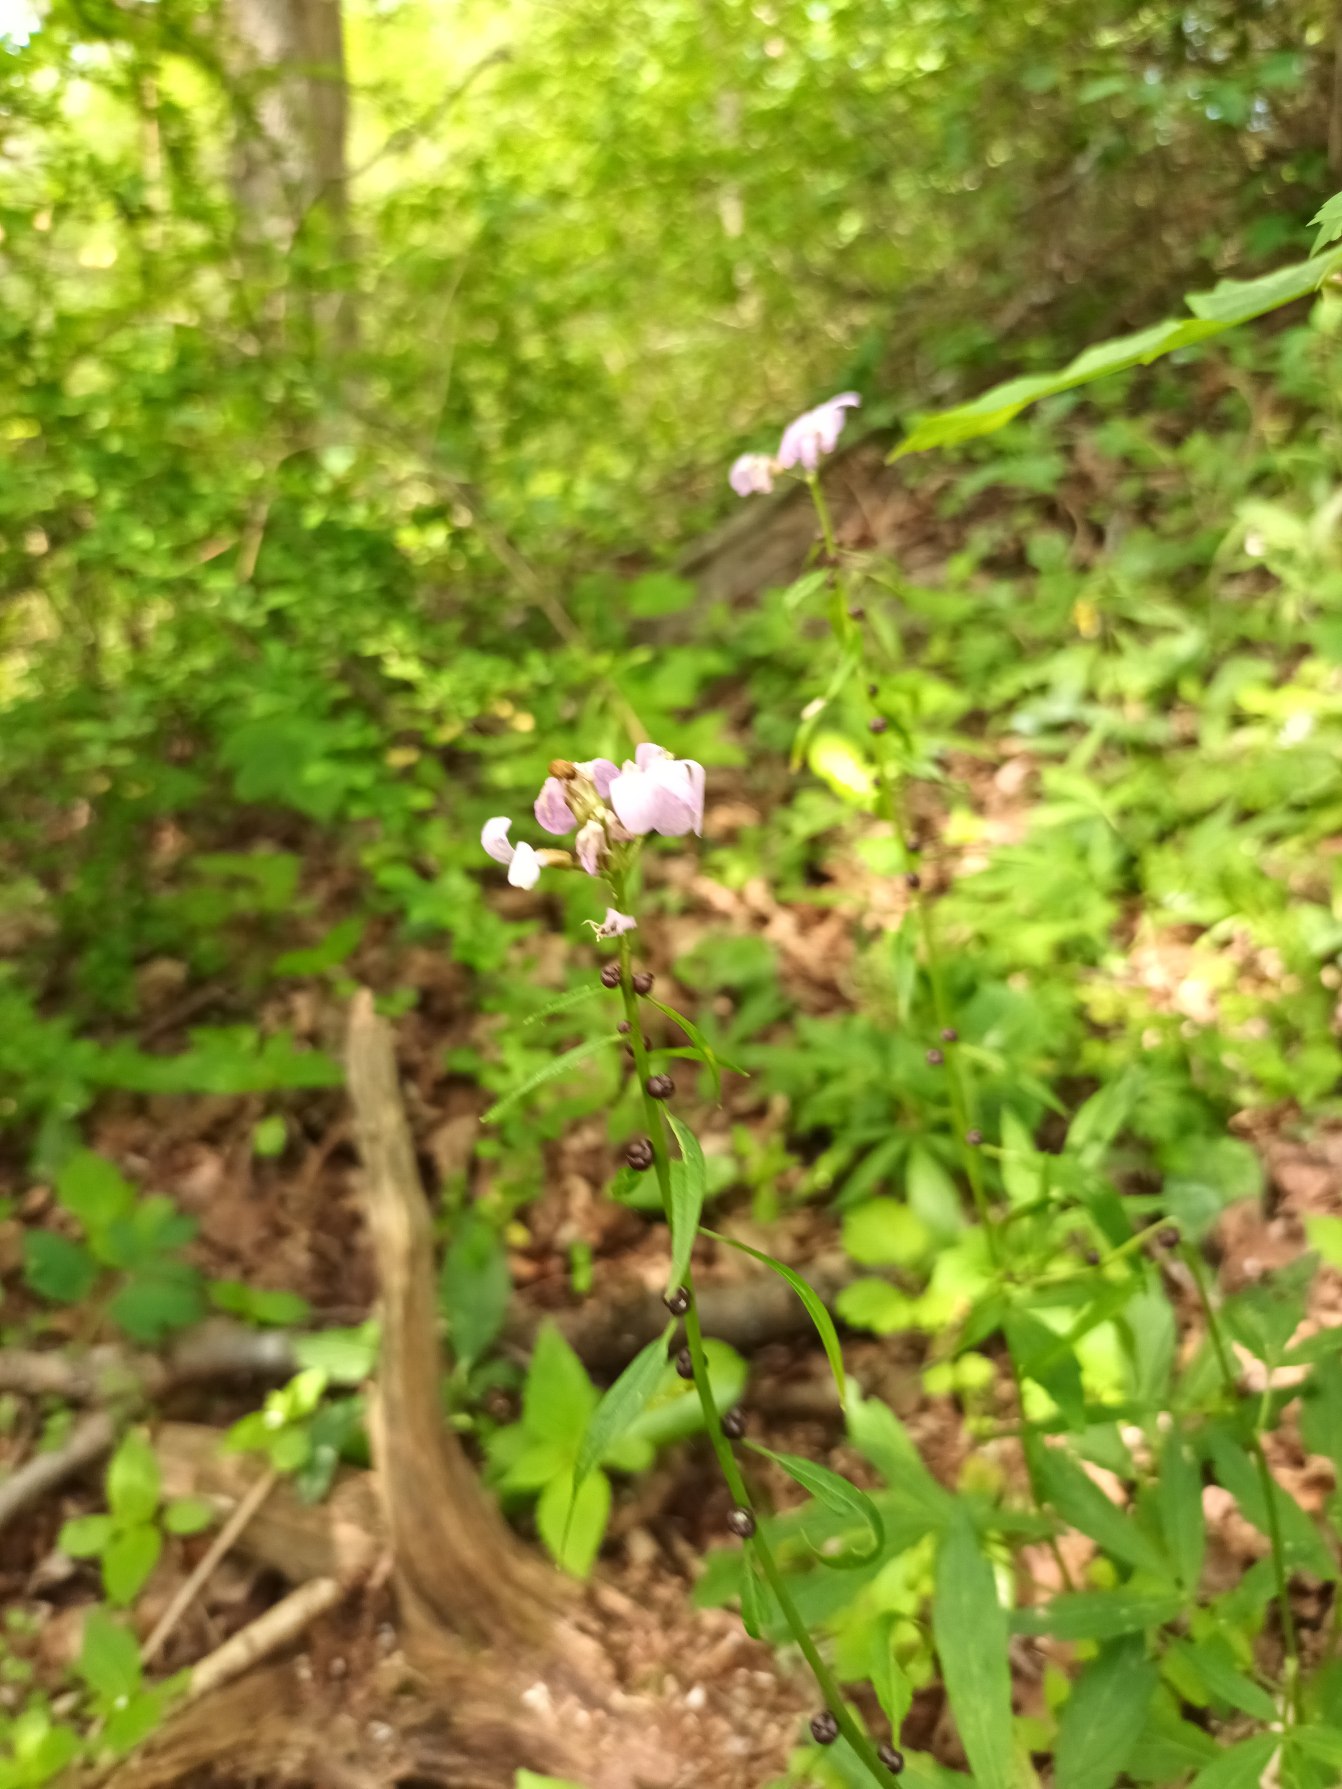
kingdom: Plantae
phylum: Tracheophyta
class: Magnoliopsida
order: Brassicales
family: Brassicaceae
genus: Cardamine
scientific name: Cardamine bulbifera
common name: Tandrod
